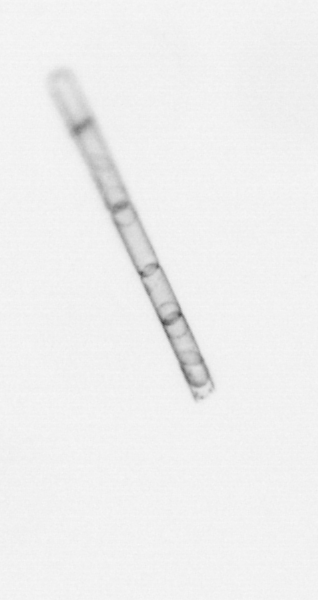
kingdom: Chromista
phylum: Ochrophyta
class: Bacillariophyceae
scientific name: Bacillariophyceae
